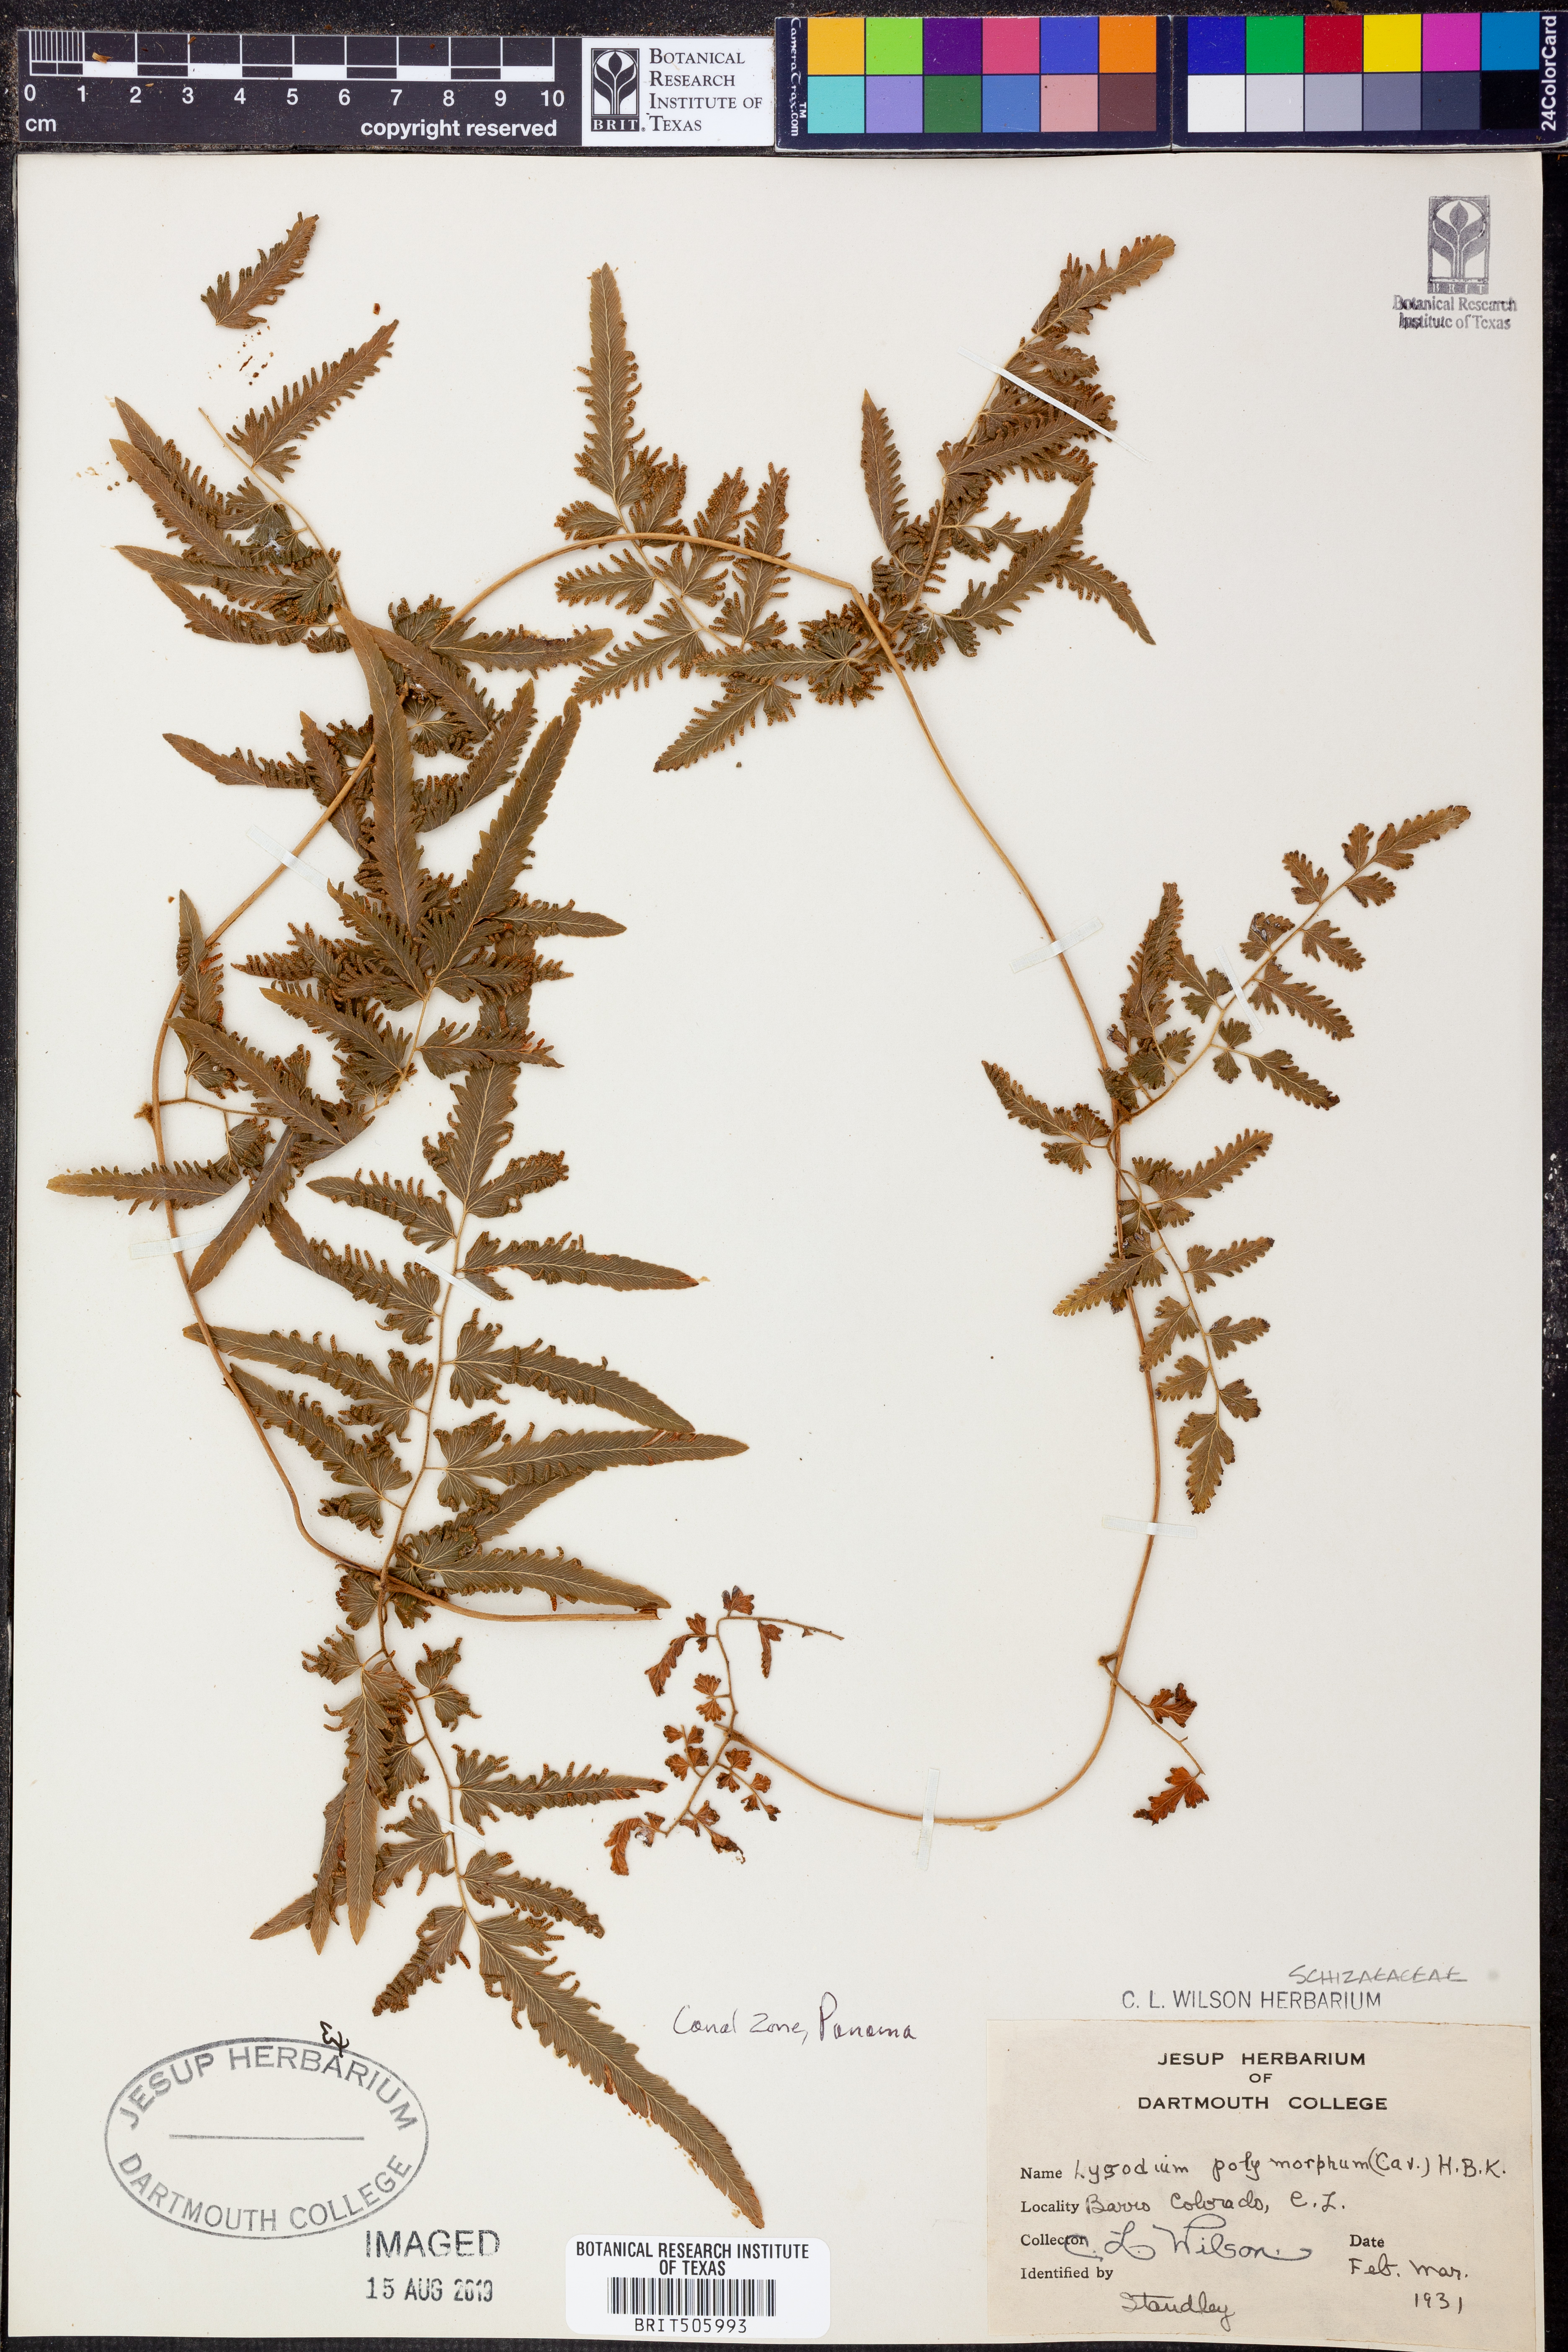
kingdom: Plantae
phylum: Tracheophyta
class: Polypodiopsida
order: Schizaeales
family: Lygodiaceae
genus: Lygodium
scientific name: Lygodium flexuosum
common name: Maidenhair creeper
